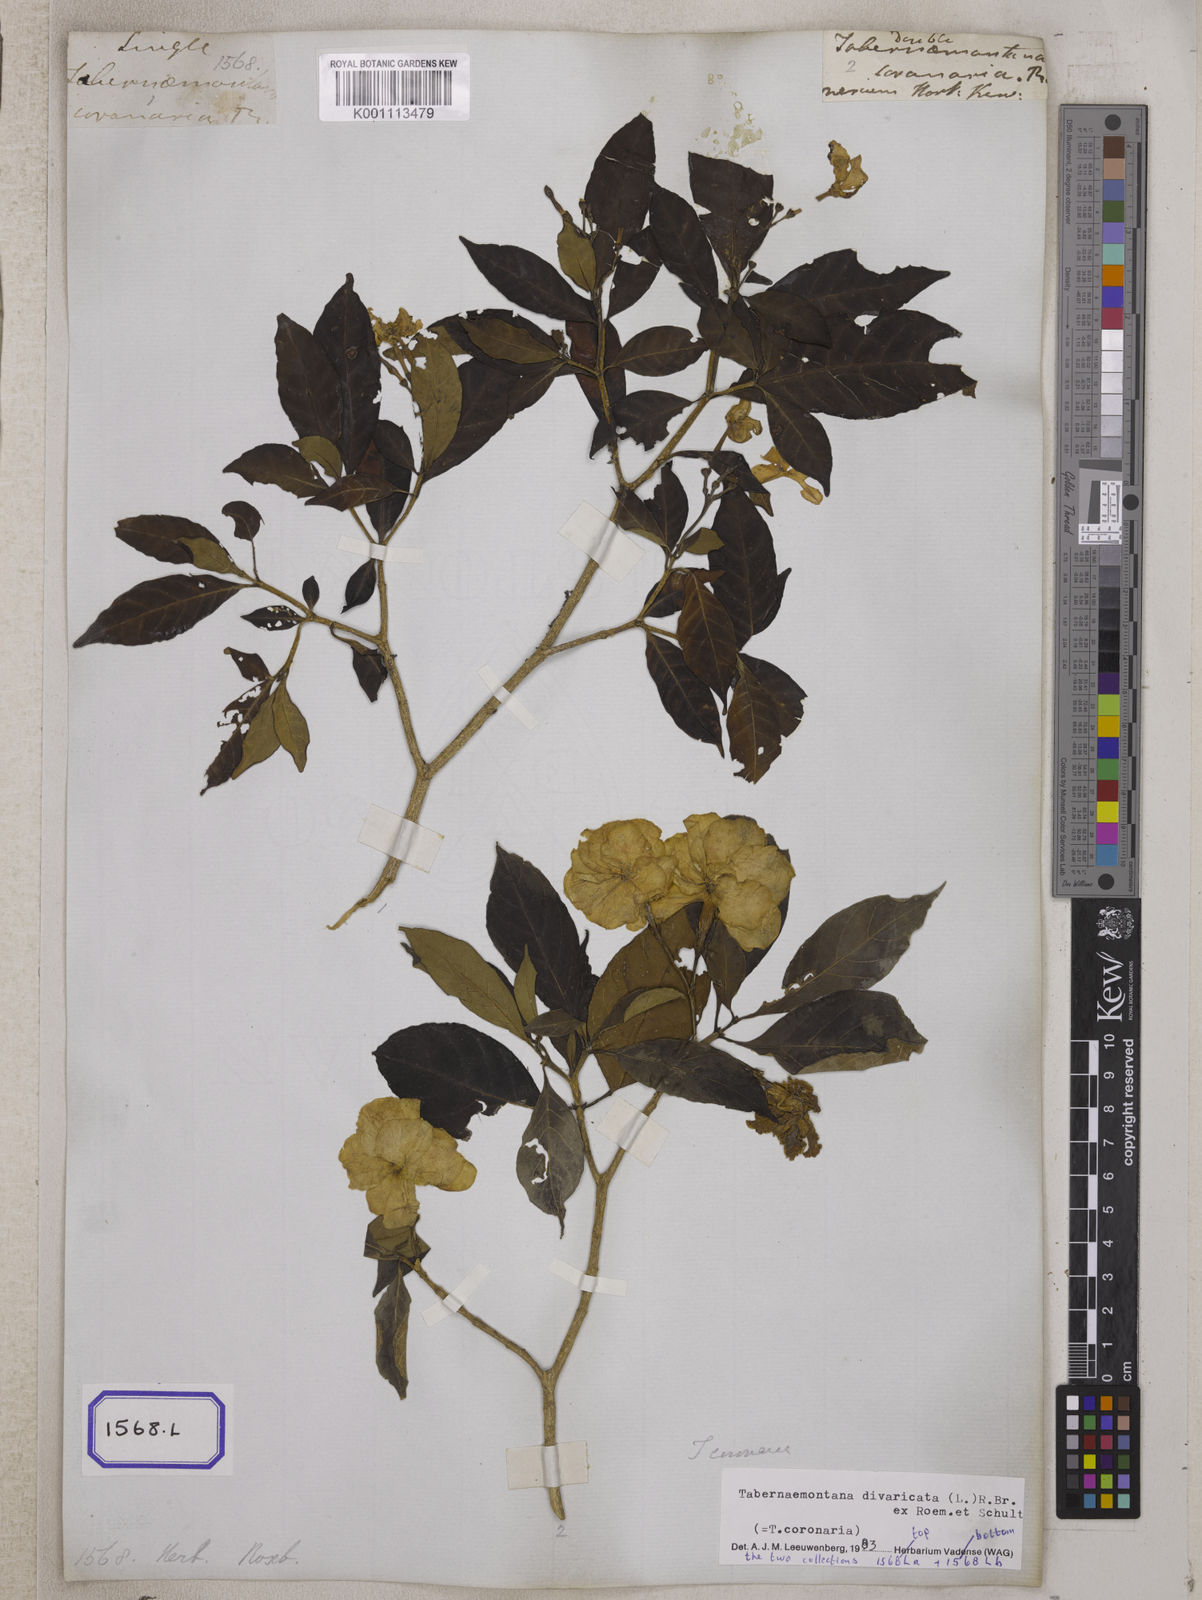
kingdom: Plantae
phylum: Tracheophyta
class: Magnoliopsida
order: Gentianales
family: Apocynaceae
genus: Tabernaemontana
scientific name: Tabernaemontana divaricata
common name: Pinwheelflower
